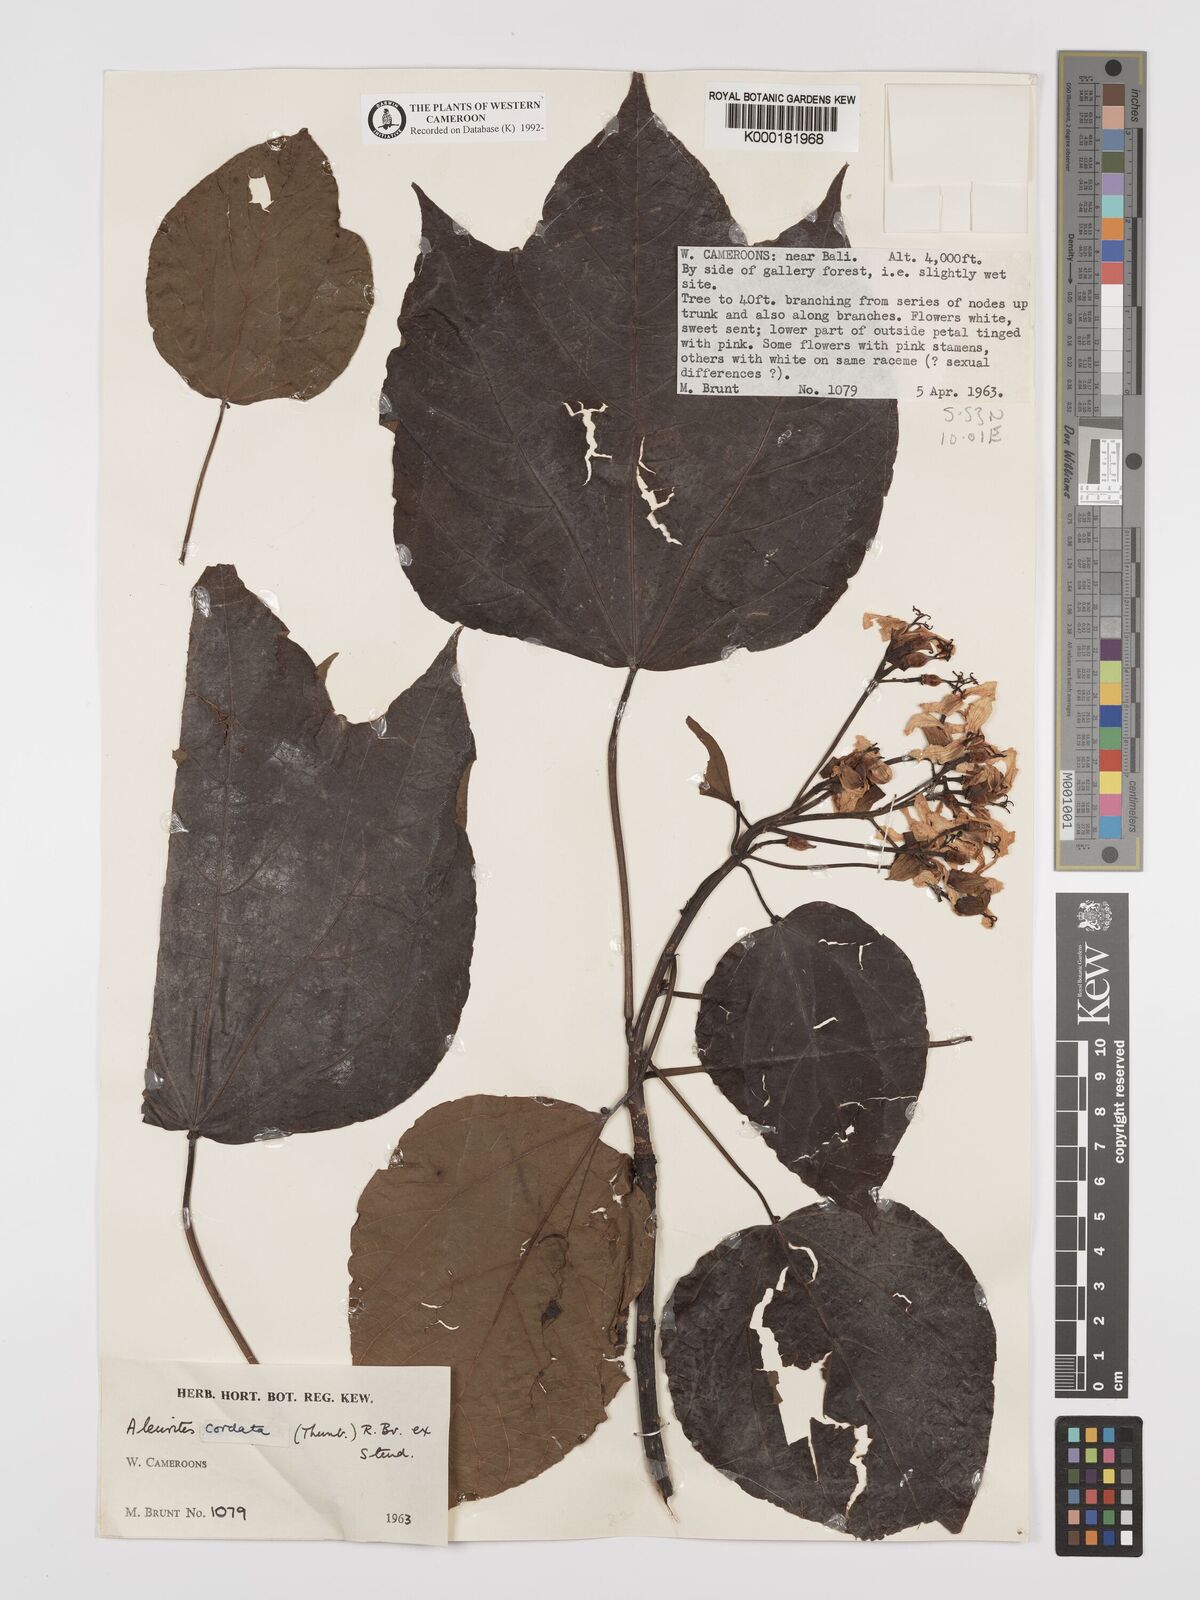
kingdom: Plantae
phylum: Tracheophyta
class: Magnoliopsida
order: Malpighiales
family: Euphorbiaceae
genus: Vernicia
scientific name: Vernicia cordata
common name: Japanese tung-oil-tree
